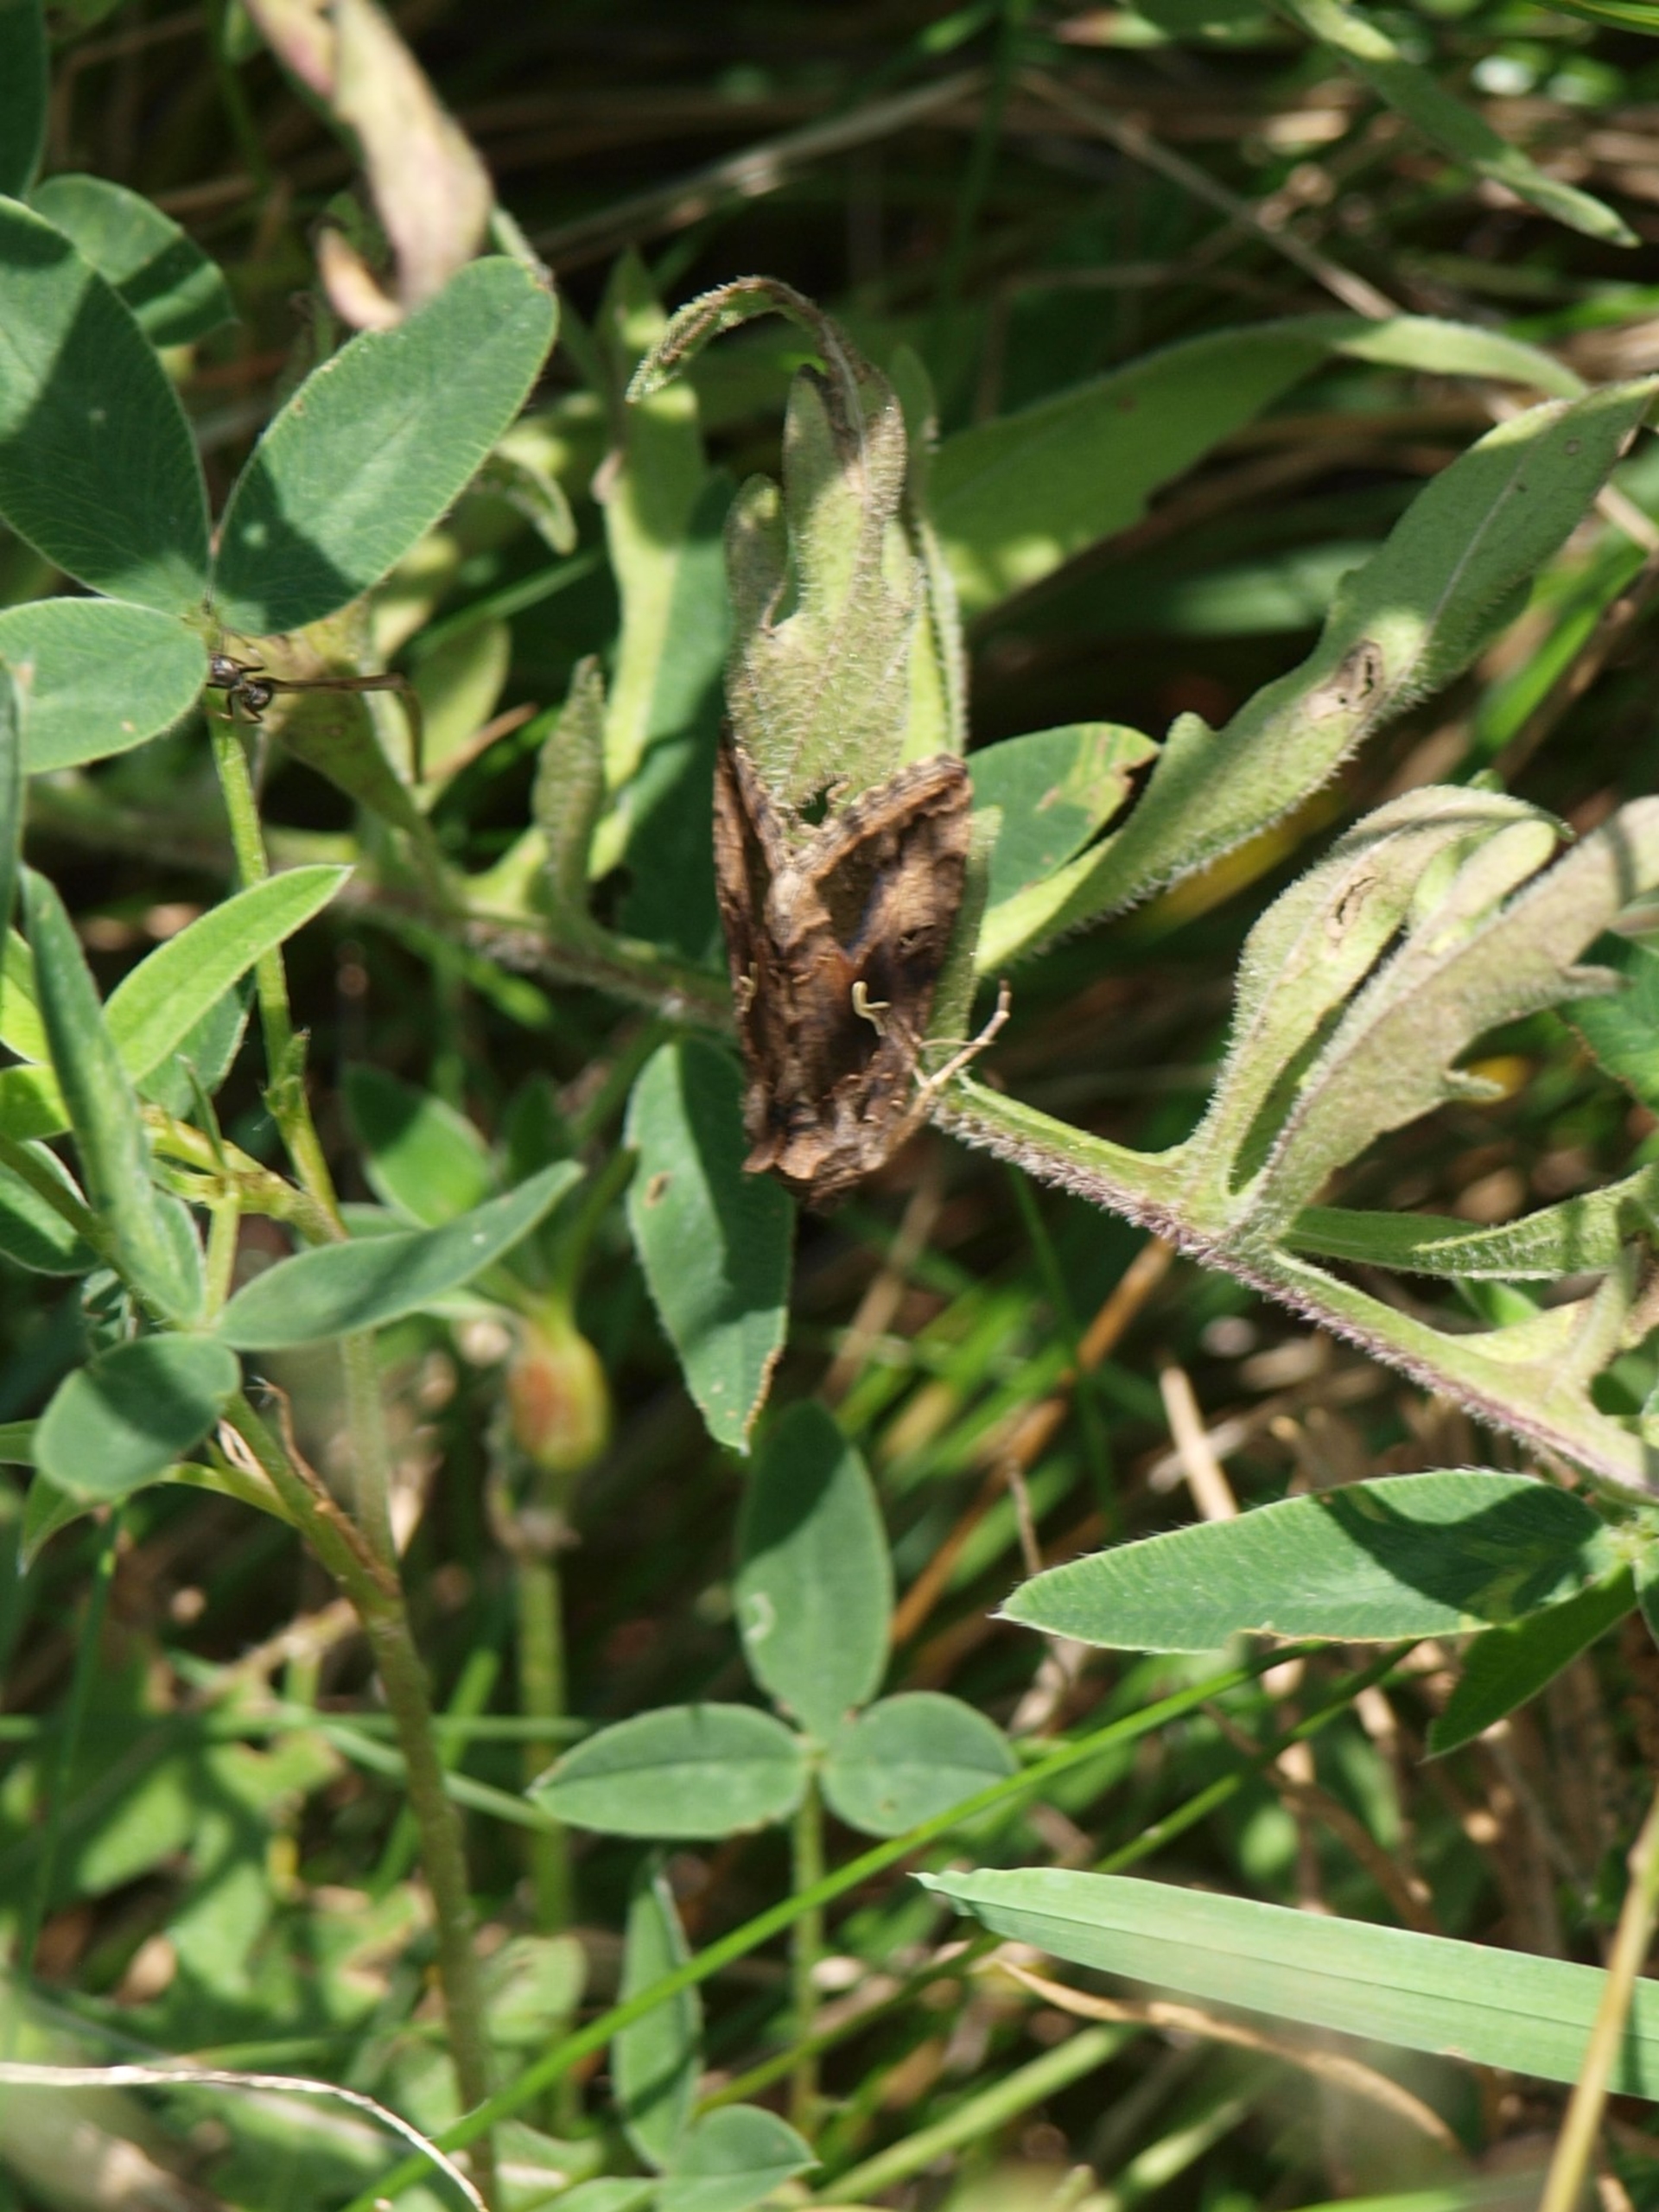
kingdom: Animalia
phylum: Arthropoda
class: Insecta
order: Lepidoptera
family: Noctuidae
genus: Autographa
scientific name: Autographa gamma
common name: Gammaugle
